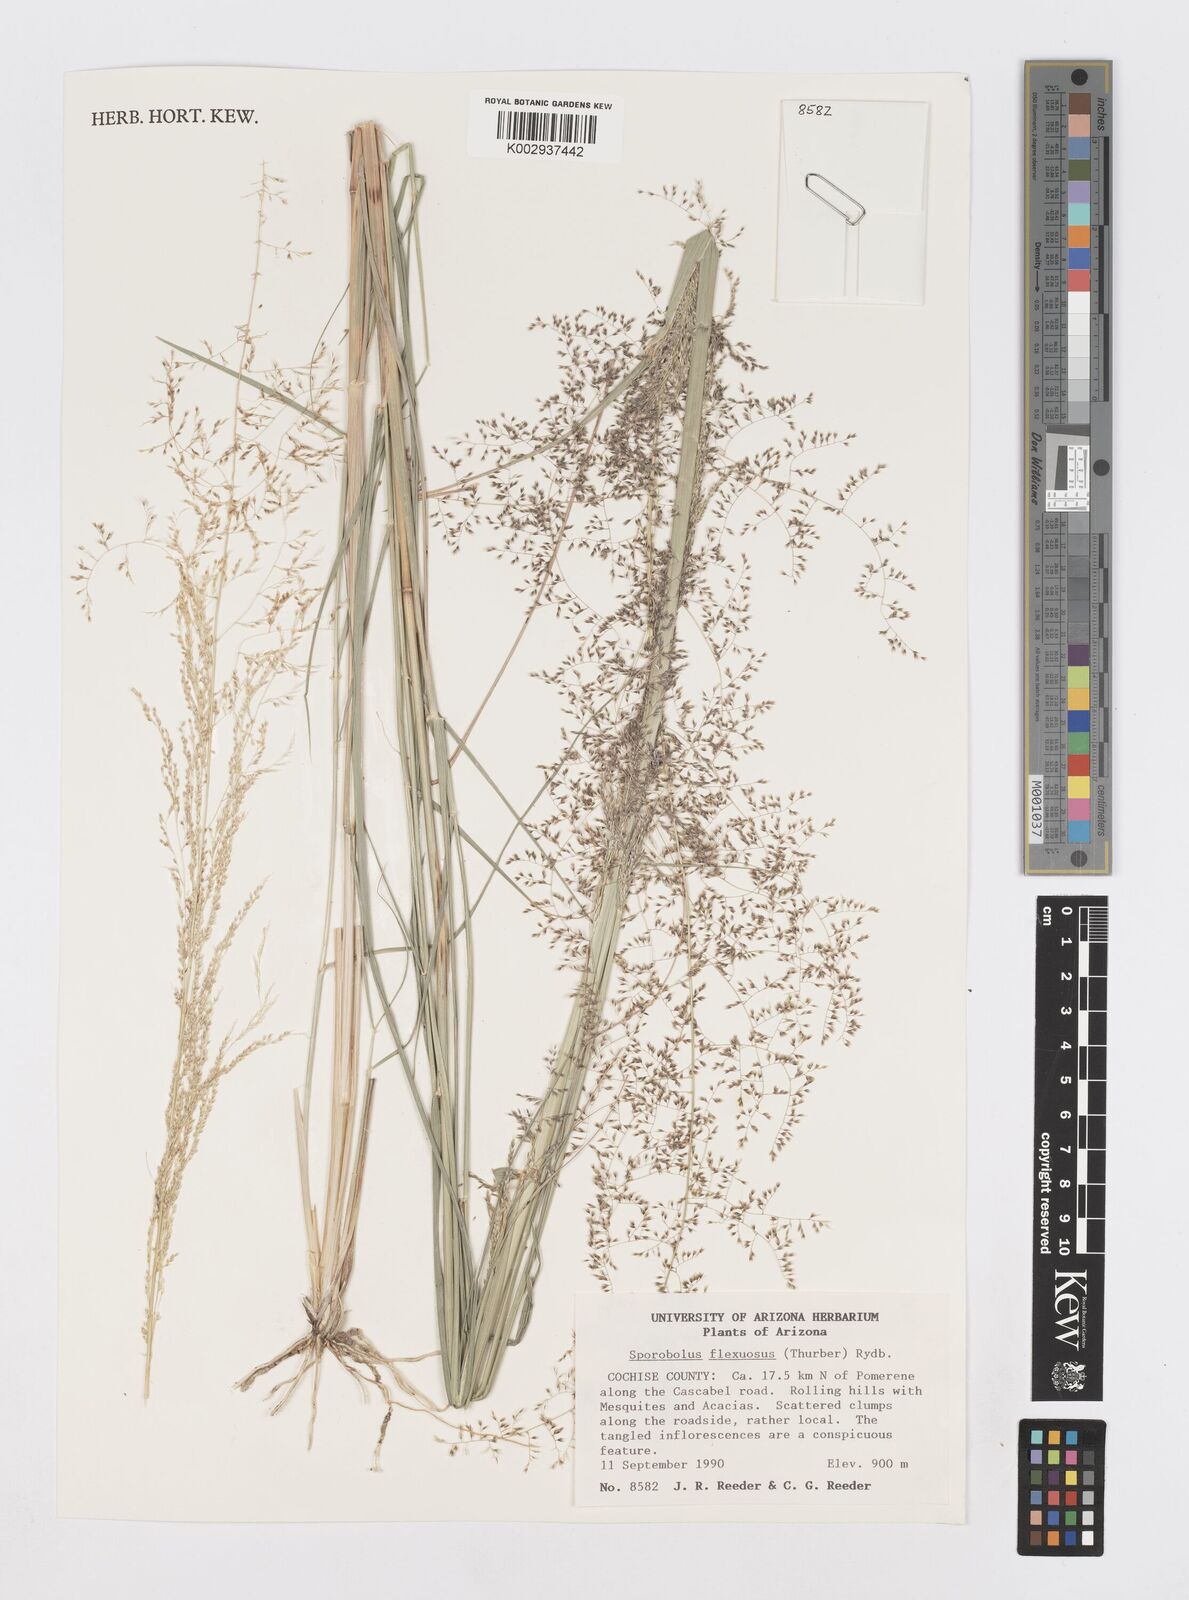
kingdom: Plantae
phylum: Tracheophyta
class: Liliopsida
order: Poales
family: Poaceae
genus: Sporobolus
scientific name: Sporobolus flexuosus
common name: Mesa dropseed
